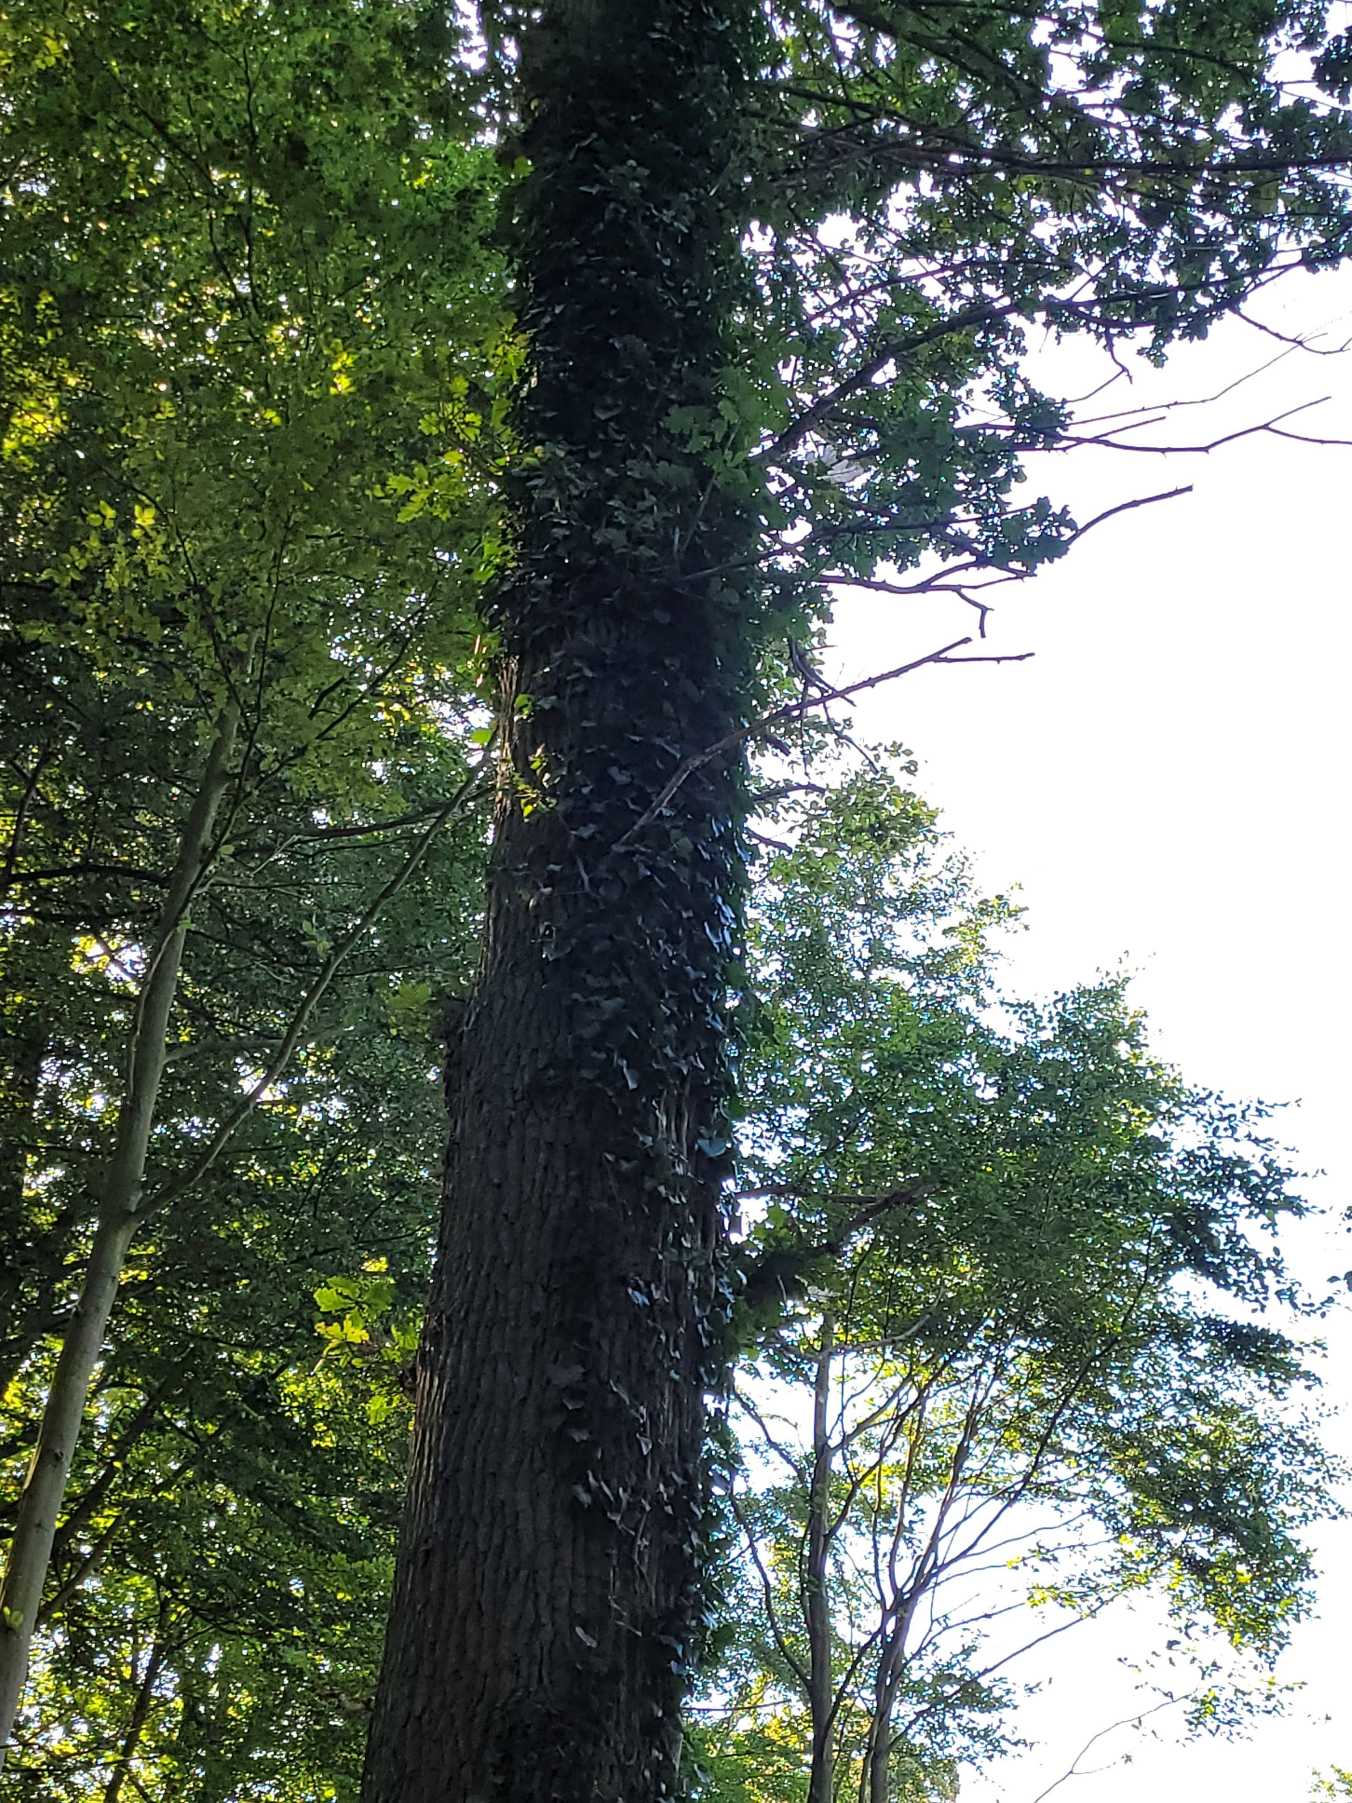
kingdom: Plantae
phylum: Tracheophyta
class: Magnoliopsida
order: Apiales
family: Araliaceae
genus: Hedera
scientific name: Hedera helix
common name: Vedbend
